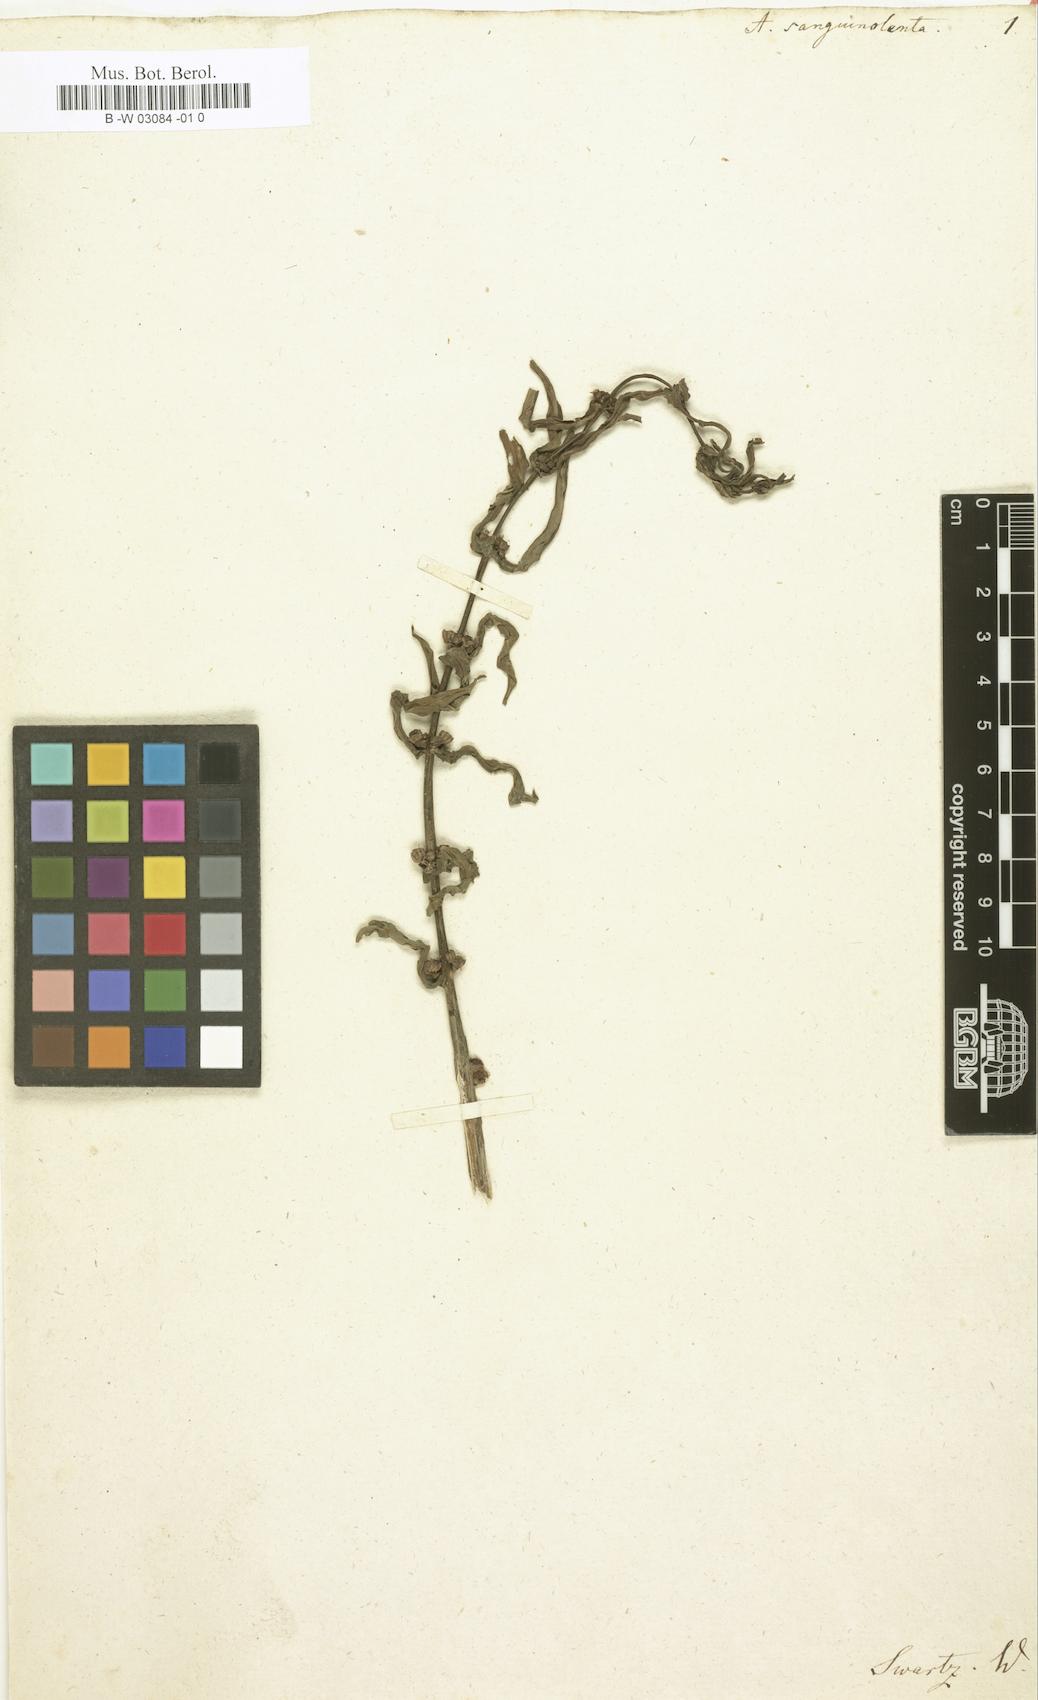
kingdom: Plantae
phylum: Tracheophyta
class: Magnoliopsida
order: Myrtales
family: Lythraceae
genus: Ammannia
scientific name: Ammannia
